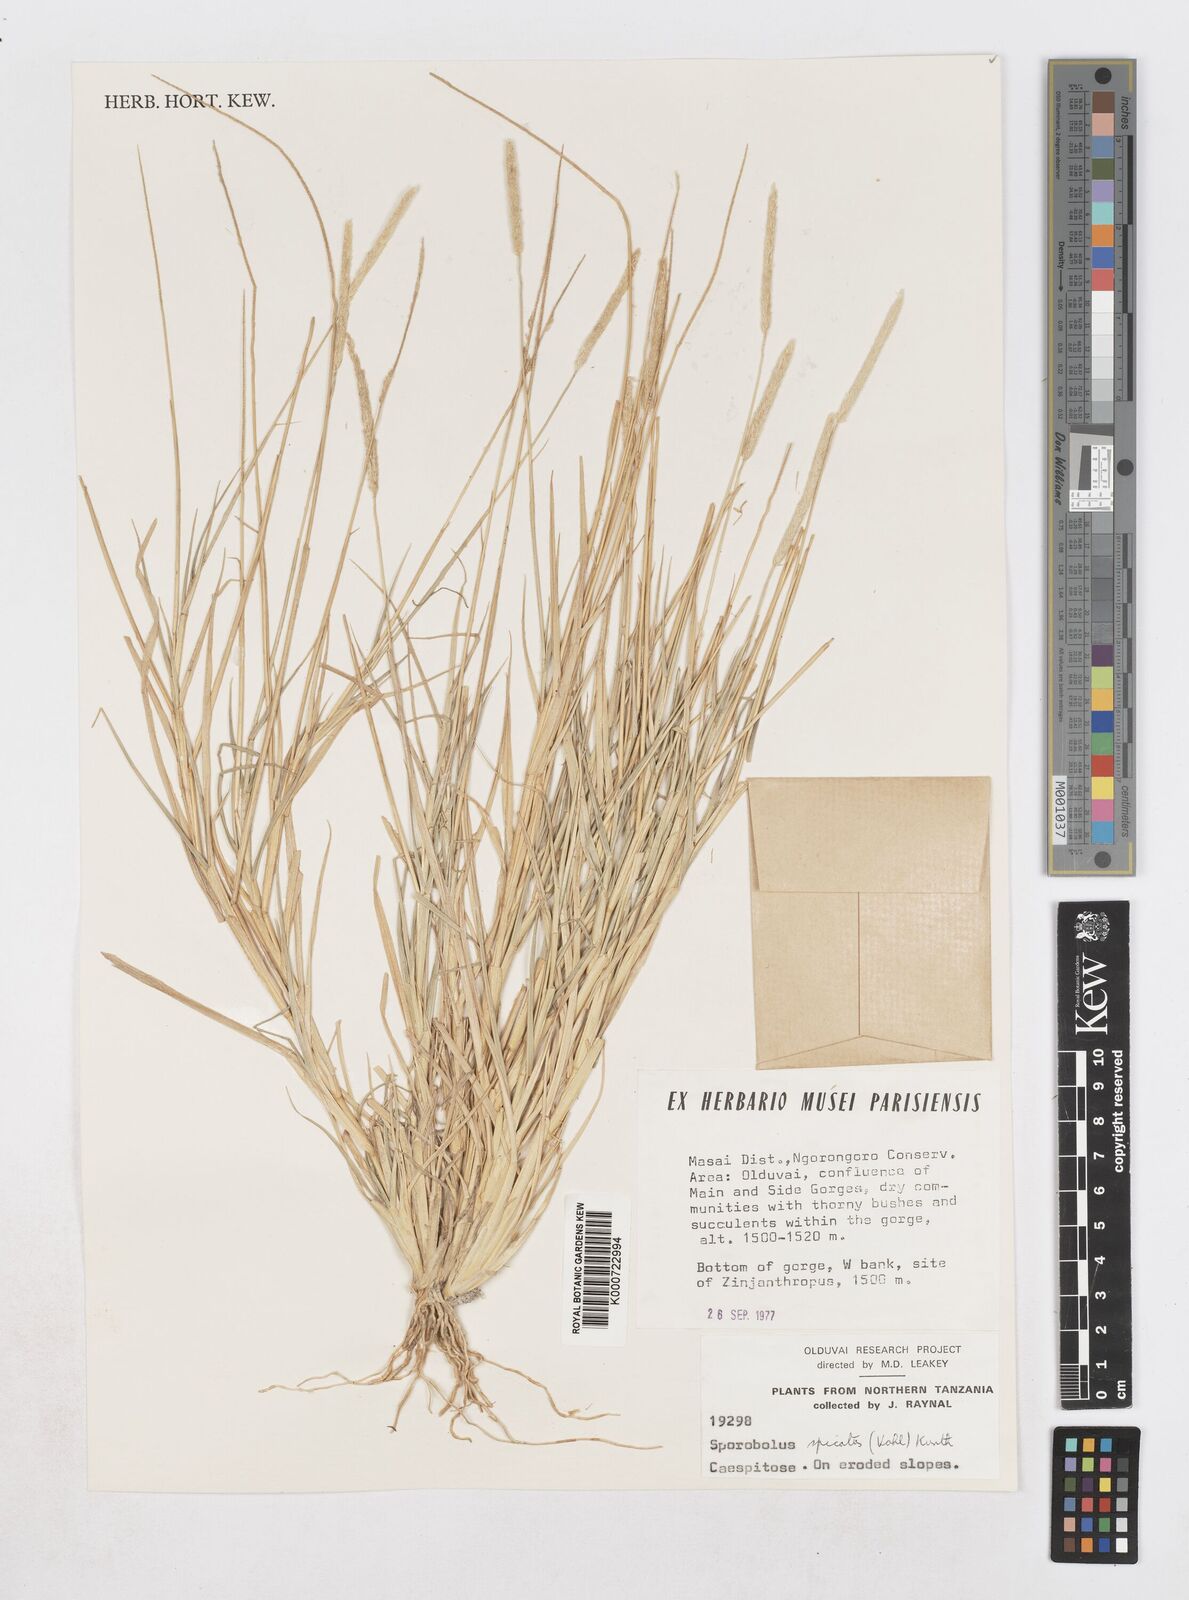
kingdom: Plantae
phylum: Tracheophyta
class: Liliopsida
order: Poales
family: Poaceae
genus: Sporobolus
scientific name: Sporobolus spicatus
